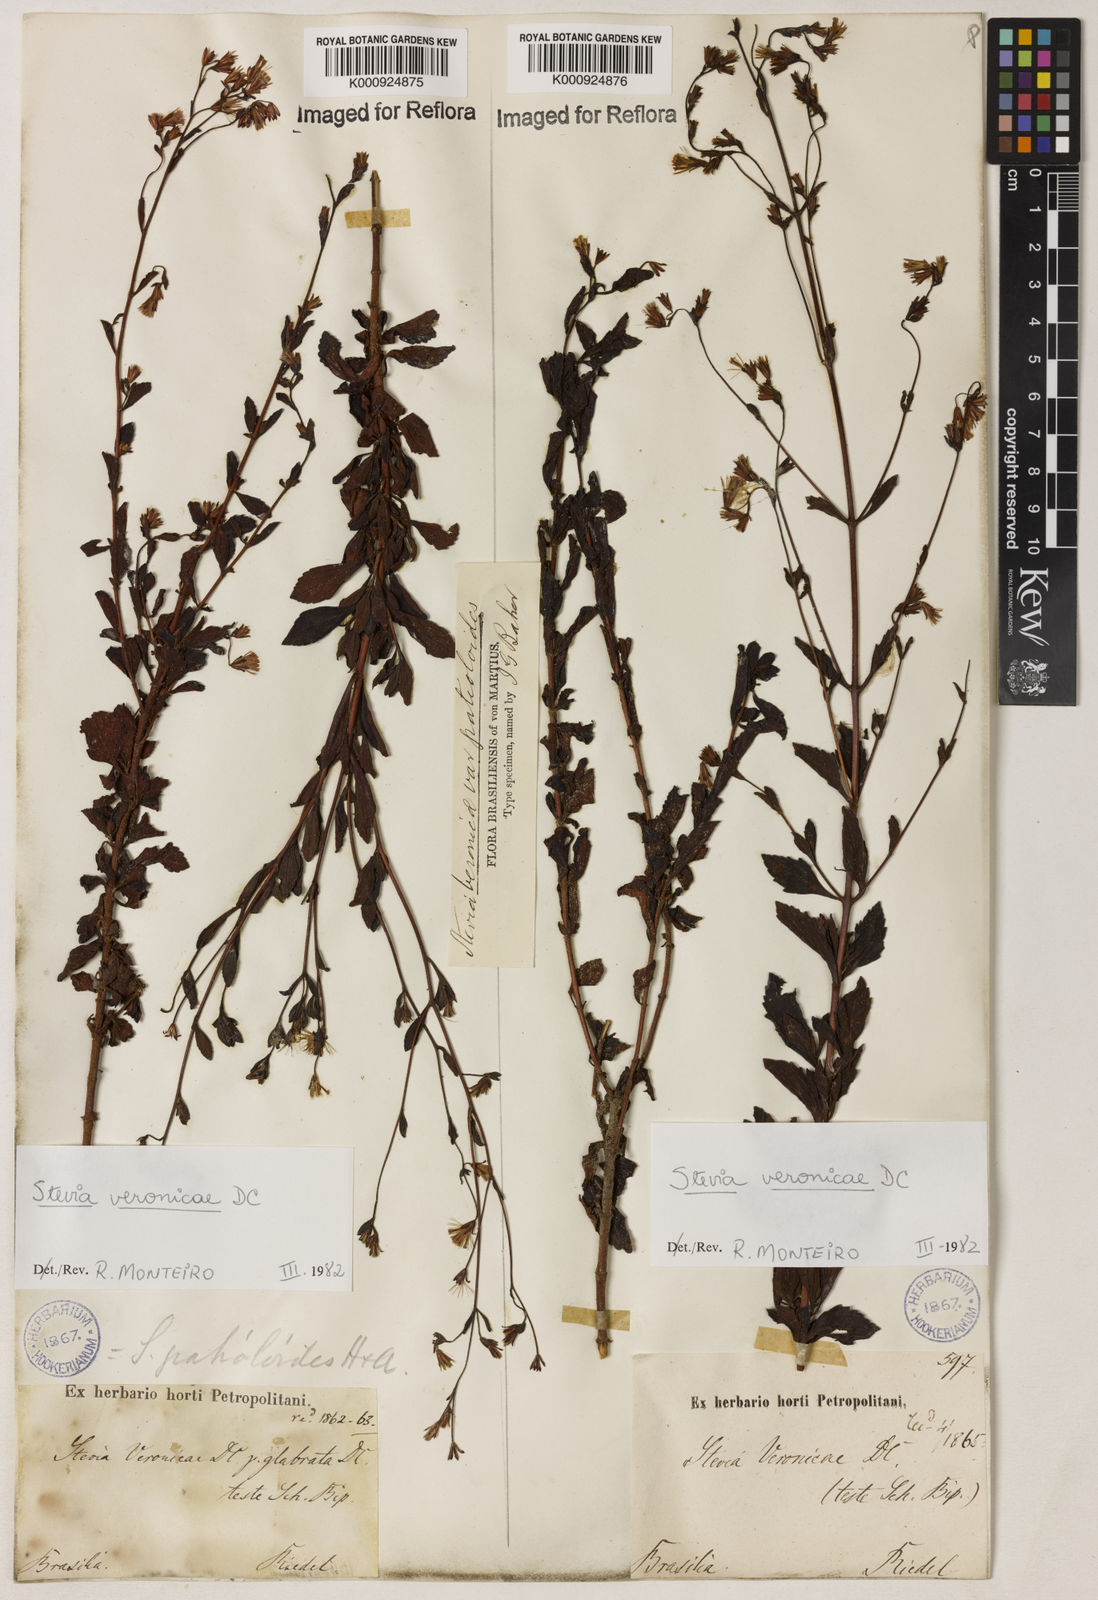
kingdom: Plantae
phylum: Tracheophyta
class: Magnoliopsida
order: Asterales
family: Asteraceae
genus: Stevia
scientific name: Stevia veronicae
